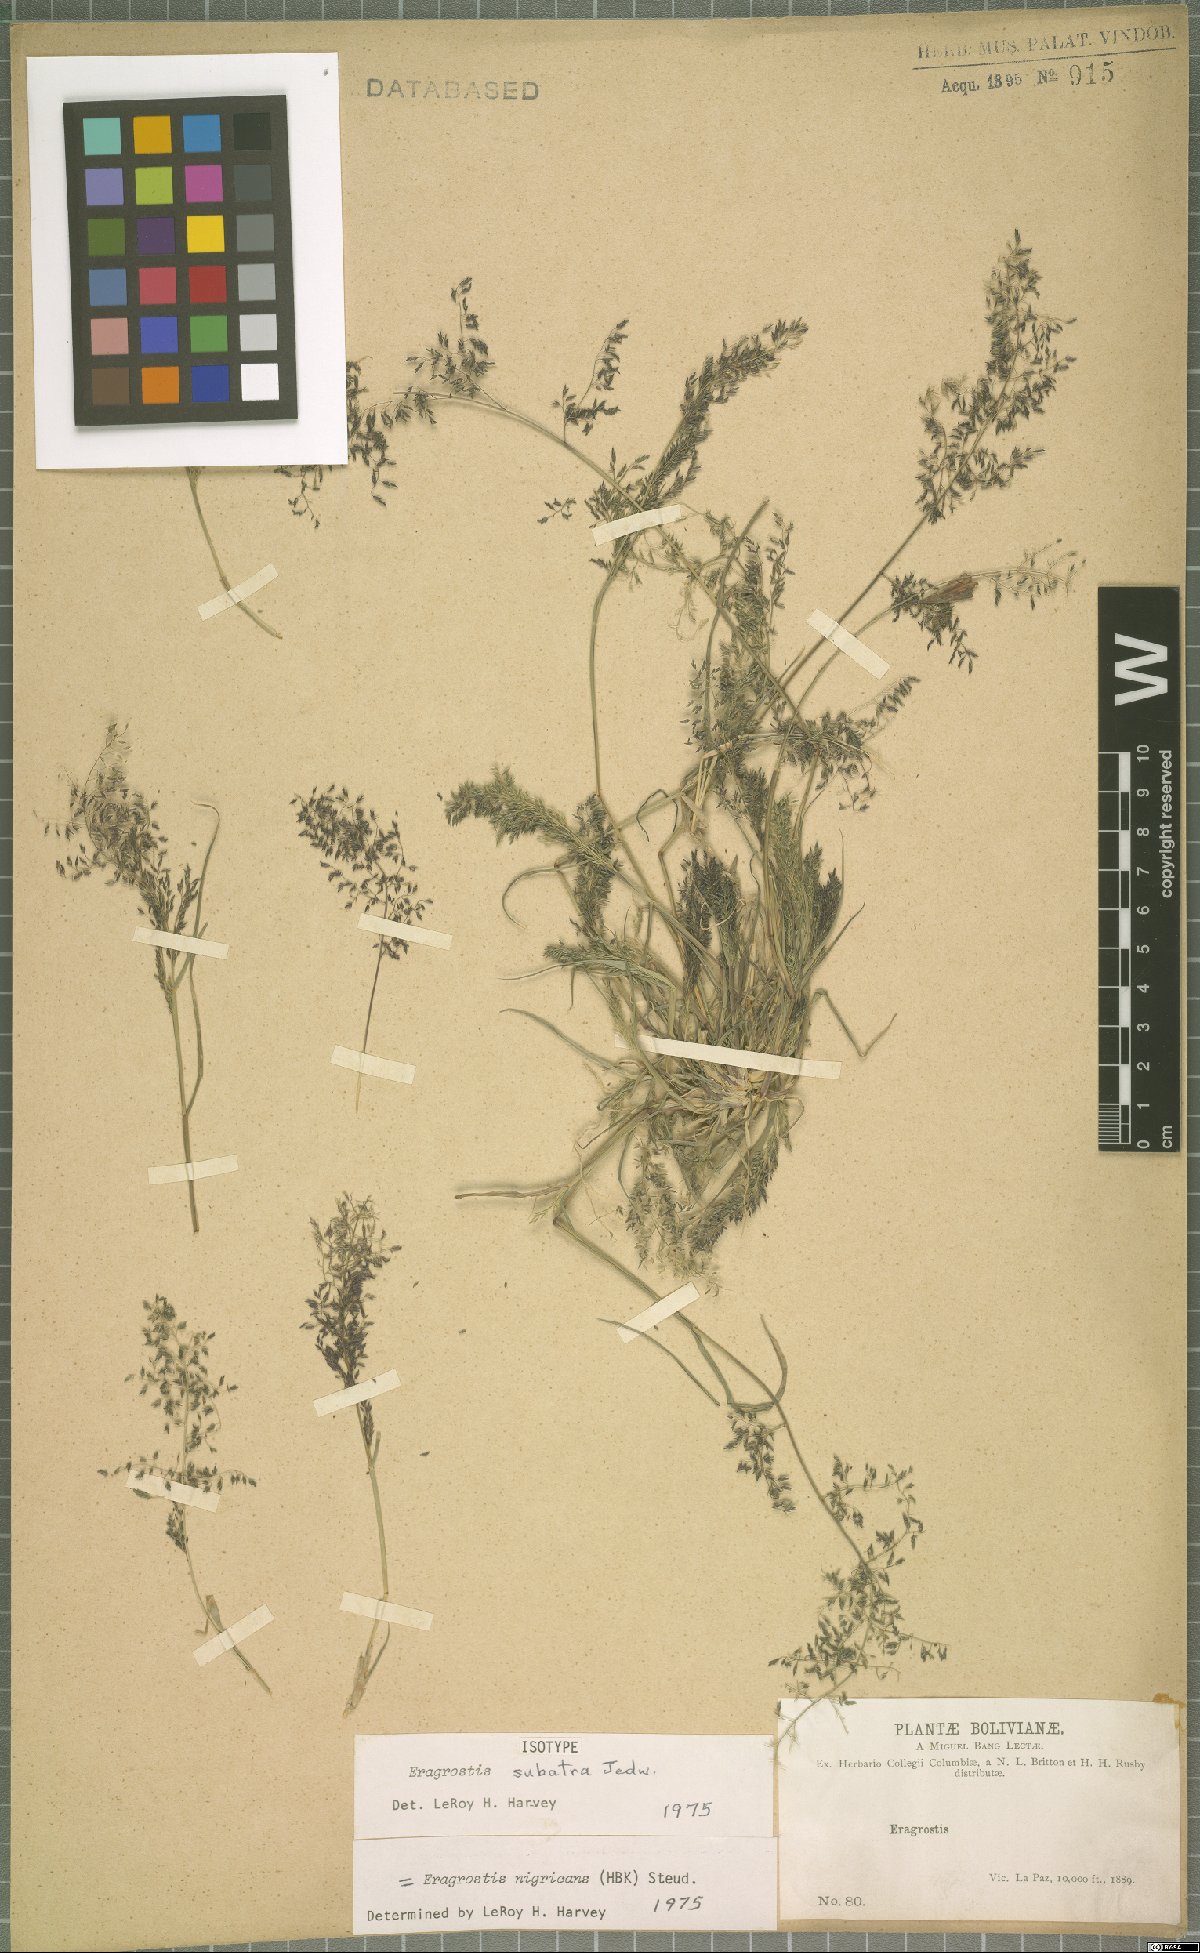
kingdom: Plantae
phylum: Tracheophyta
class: Liliopsida
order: Poales
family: Poaceae
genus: Eragrostis
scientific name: Eragrostis nigricans
